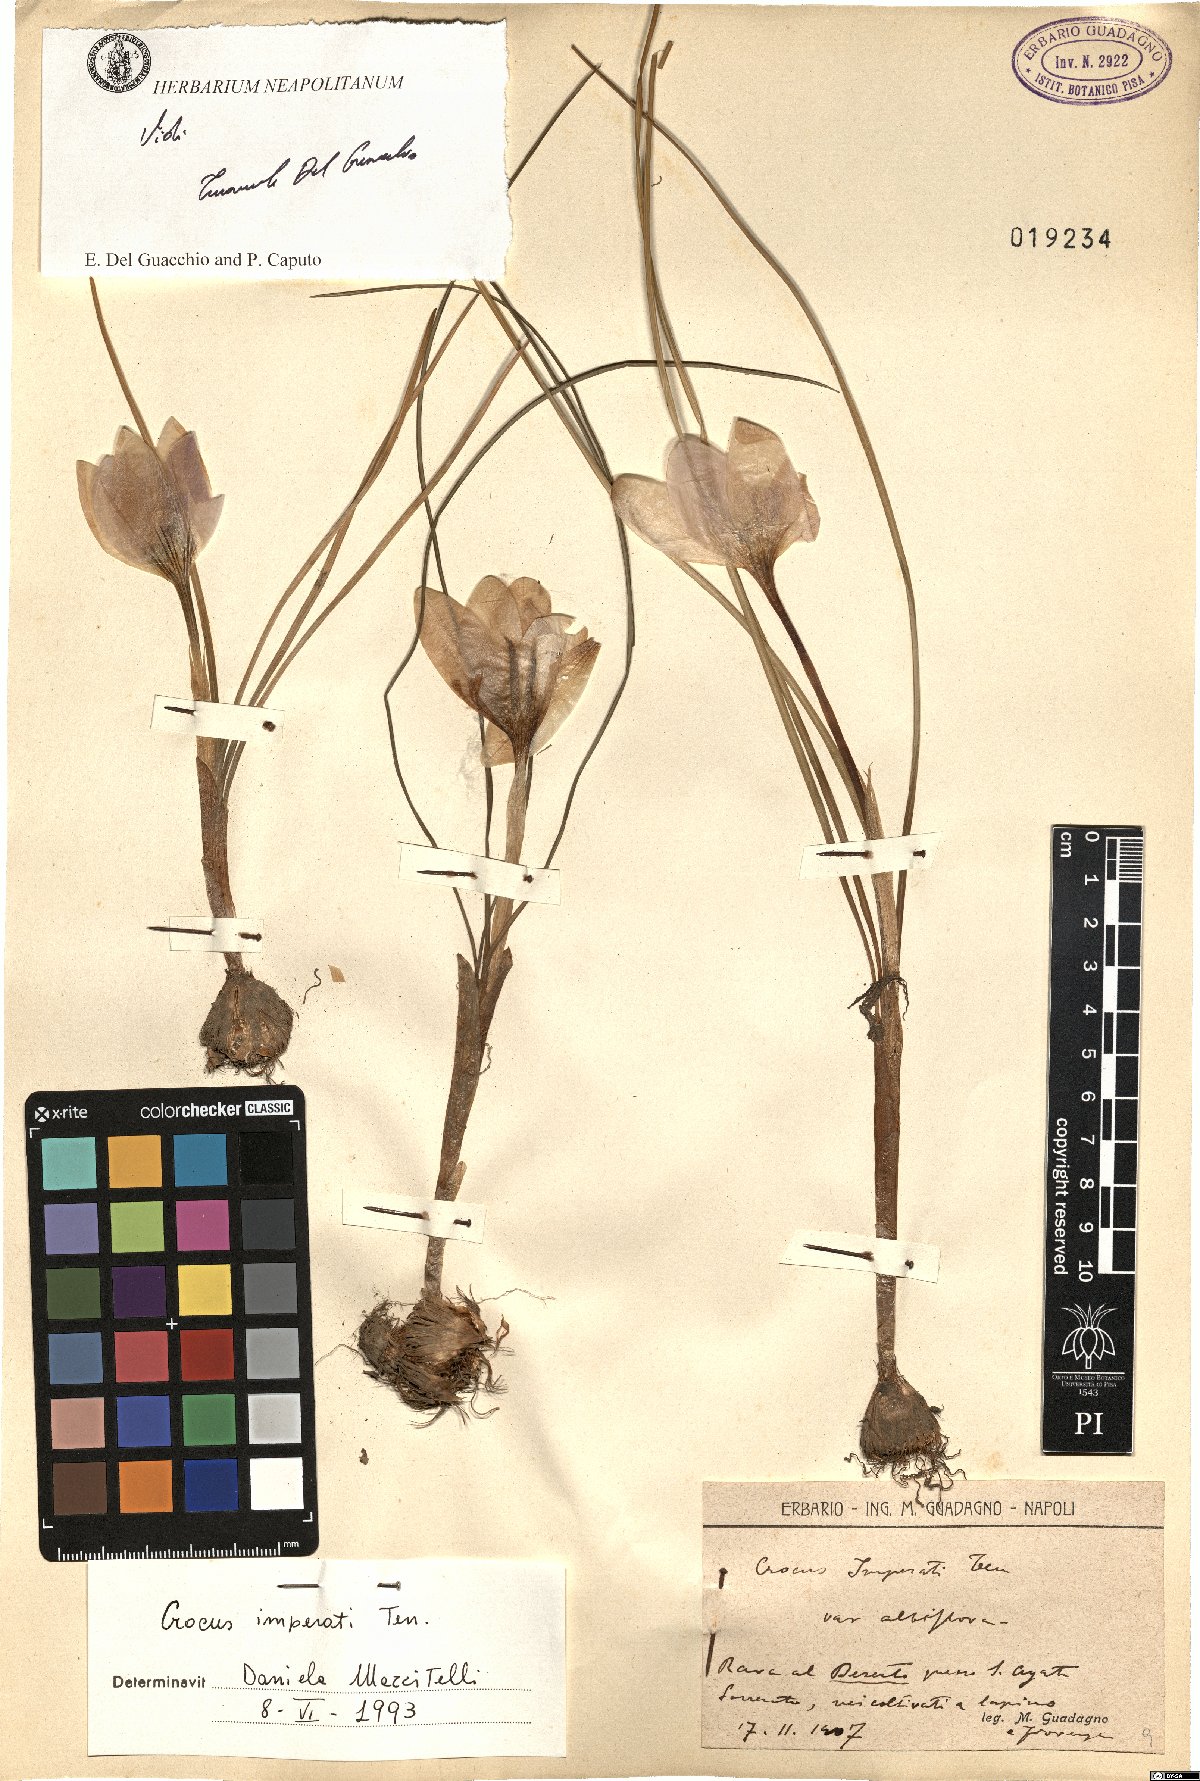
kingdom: Plantae
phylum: Tracheophyta
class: Liliopsida
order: Asparagales
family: Iridaceae
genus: Crocus
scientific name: Crocus imperati
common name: Early crocus
